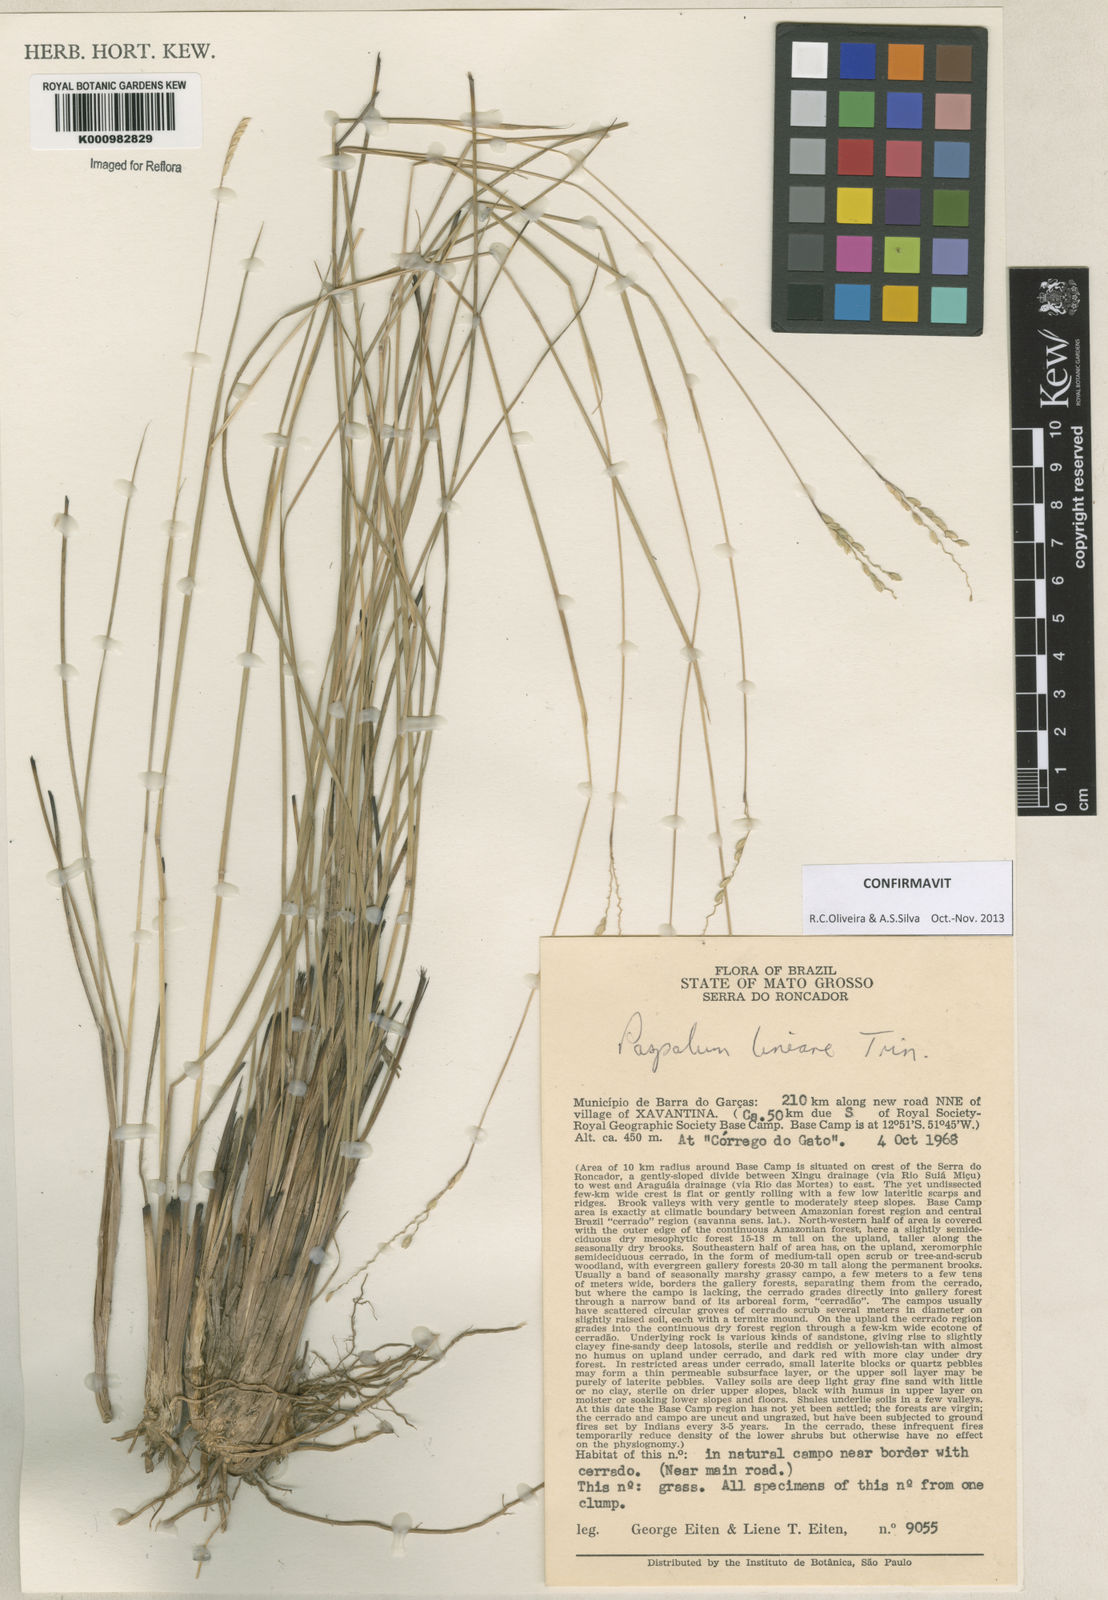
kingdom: Plantae
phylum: Tracheophyta
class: Liliopsida
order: Poales
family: Poaceae
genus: Paspalum
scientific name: Paspalum lineare
